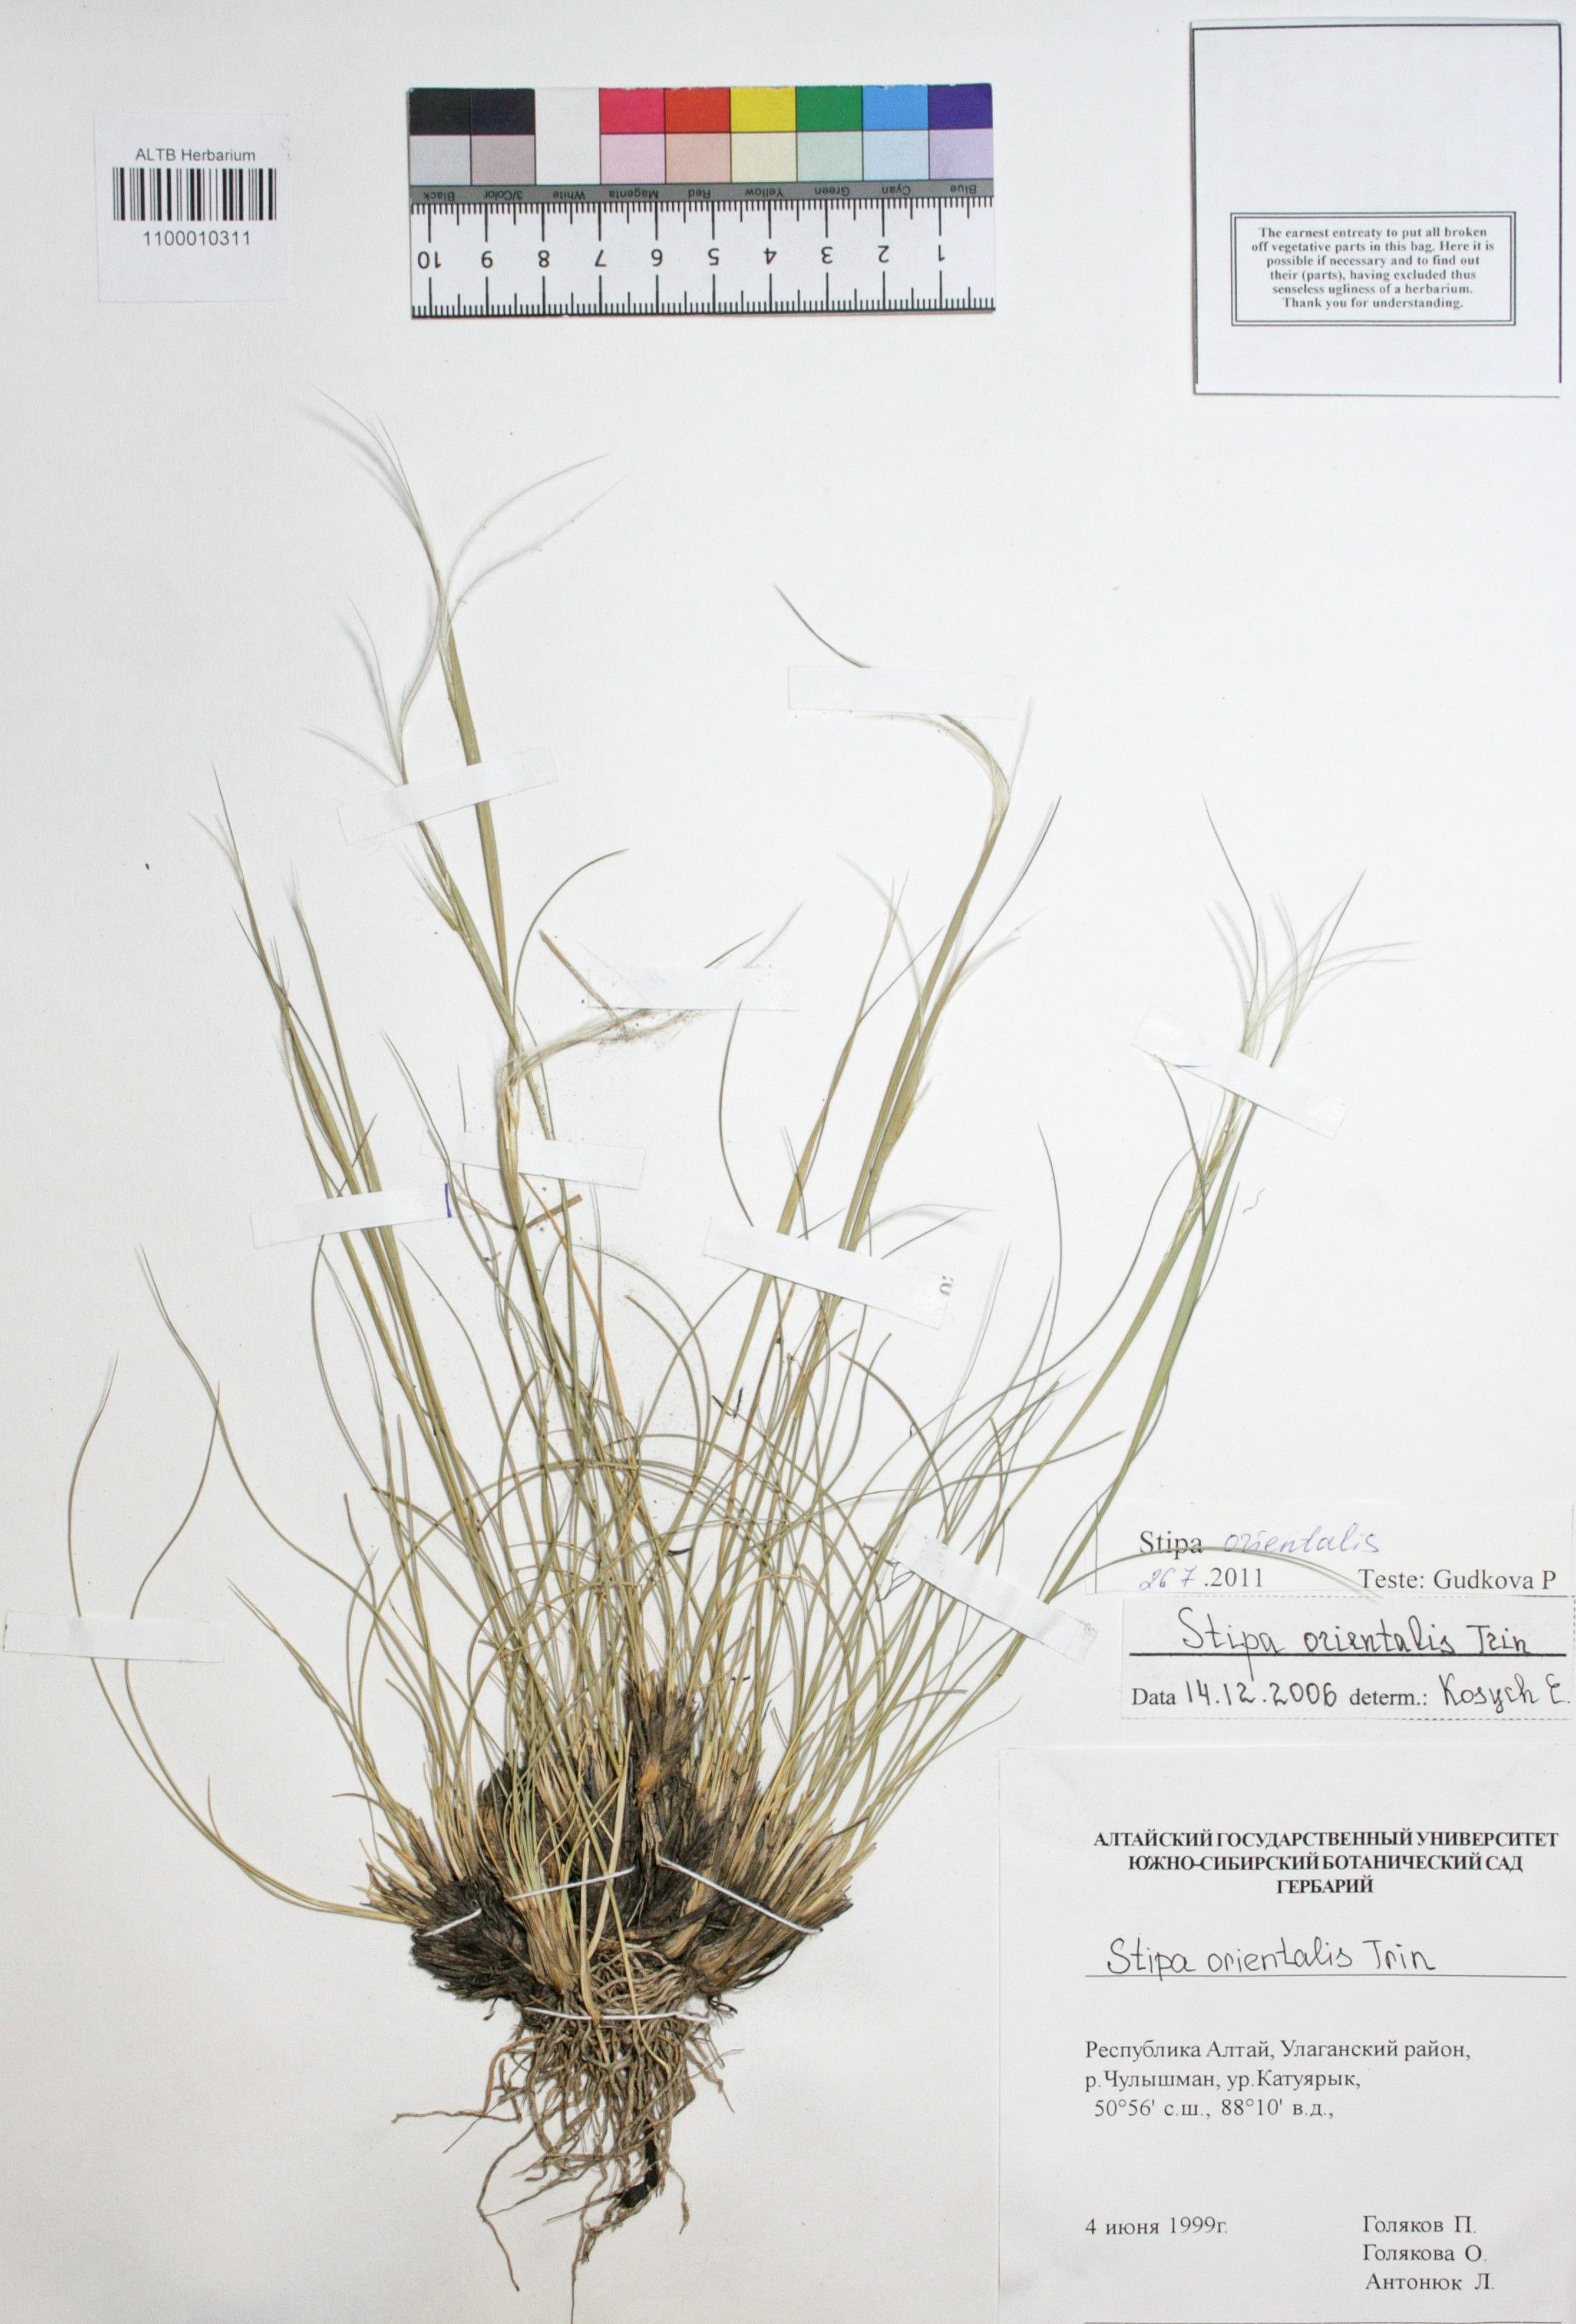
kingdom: Plantae
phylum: Tracheophyta
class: Liliopsida
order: Poales
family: Poaceae
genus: Stipa
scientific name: Stipa orientalis
